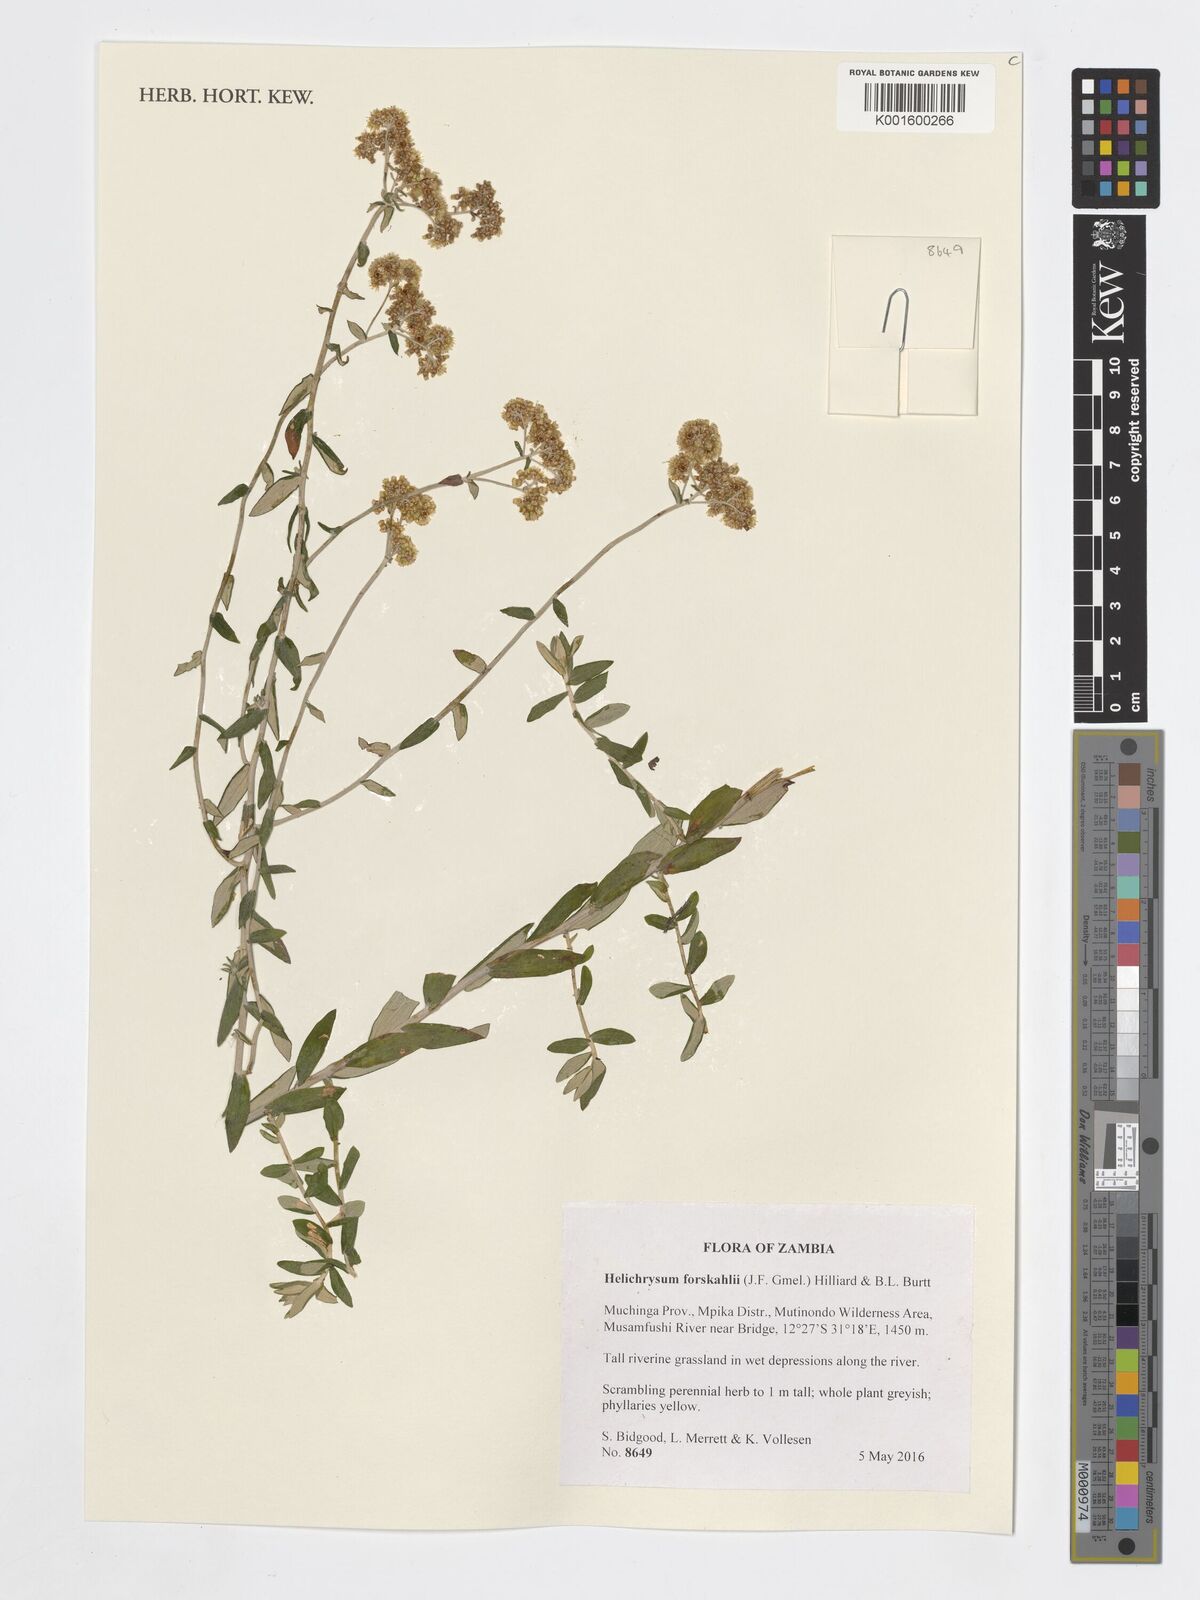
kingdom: Plantae
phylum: Tracheophyta
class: Magnoliopsida
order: Asterales
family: Asteraceae
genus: Helichrysum
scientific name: Helichrysum forskahlii
